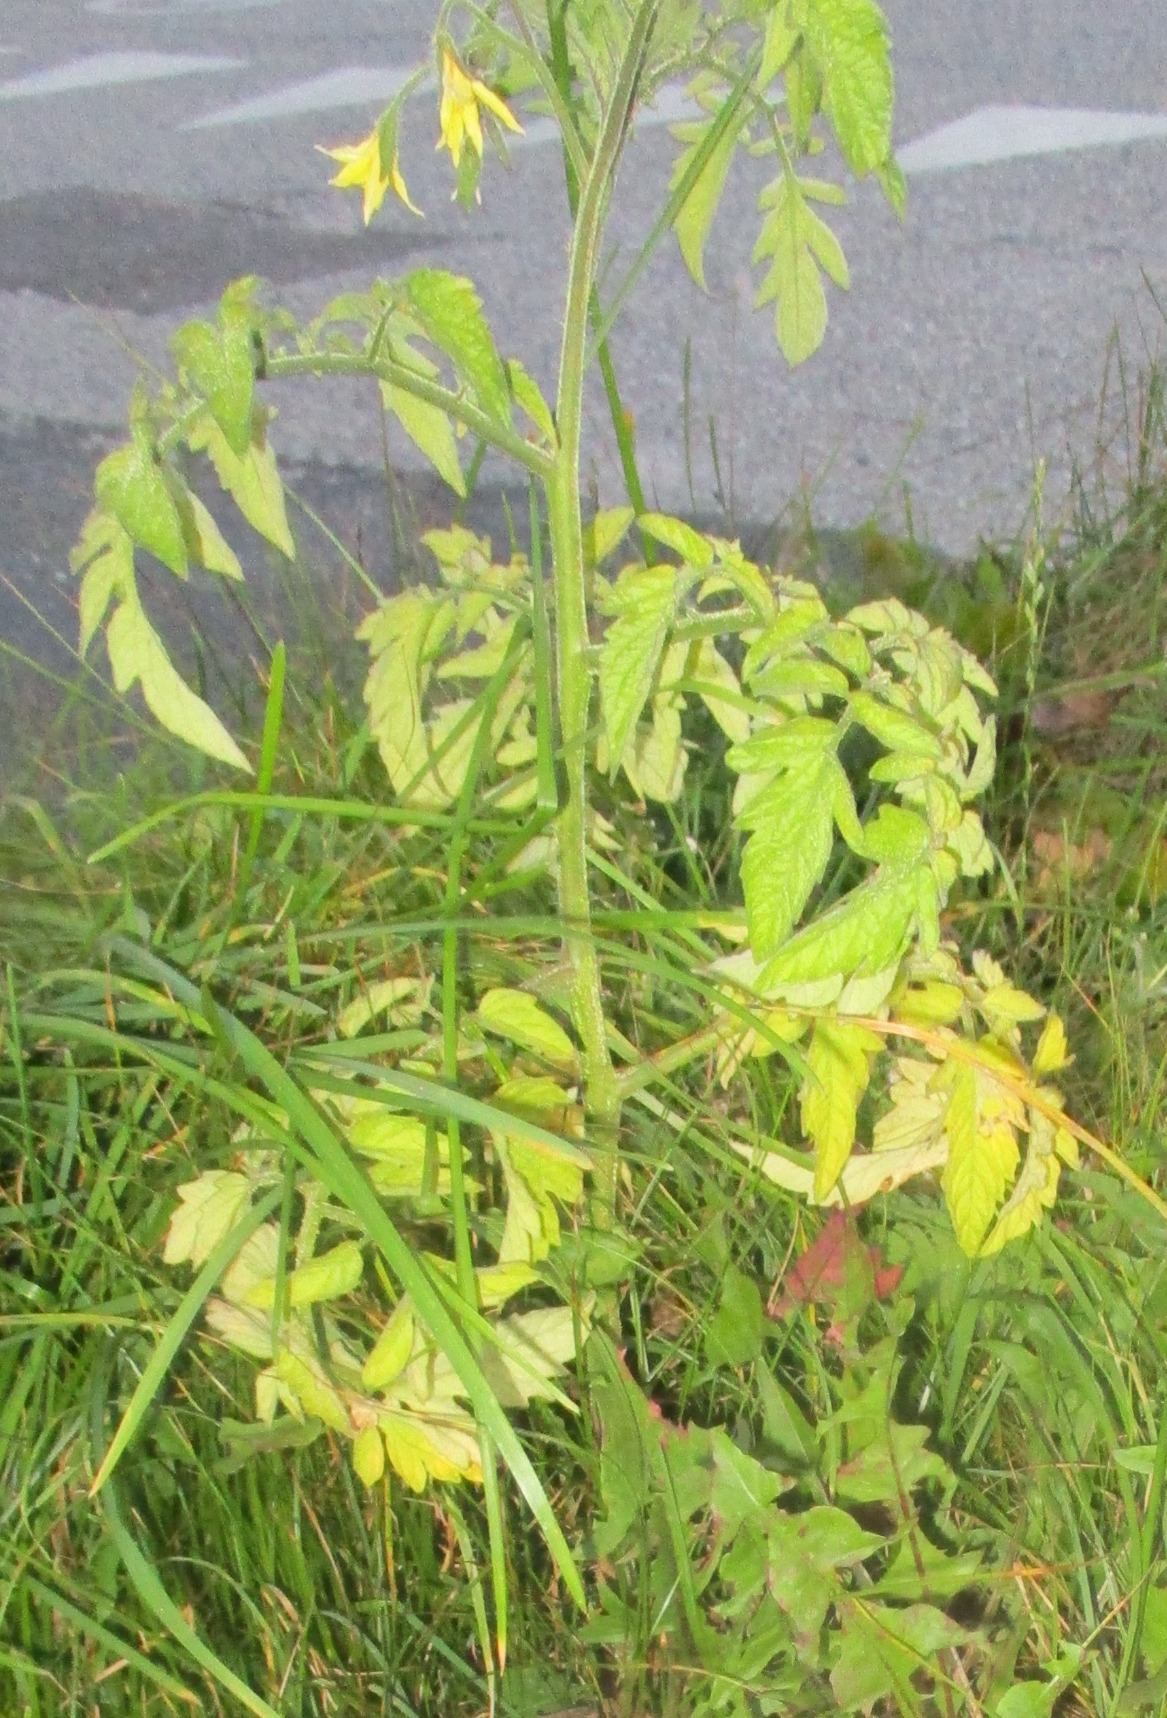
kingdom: Plantae
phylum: Tracheophyta
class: Magnoliopsida
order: Solanales
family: Solanaceae
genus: Solanum
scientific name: Solanum lycopersicum
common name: Tomat
